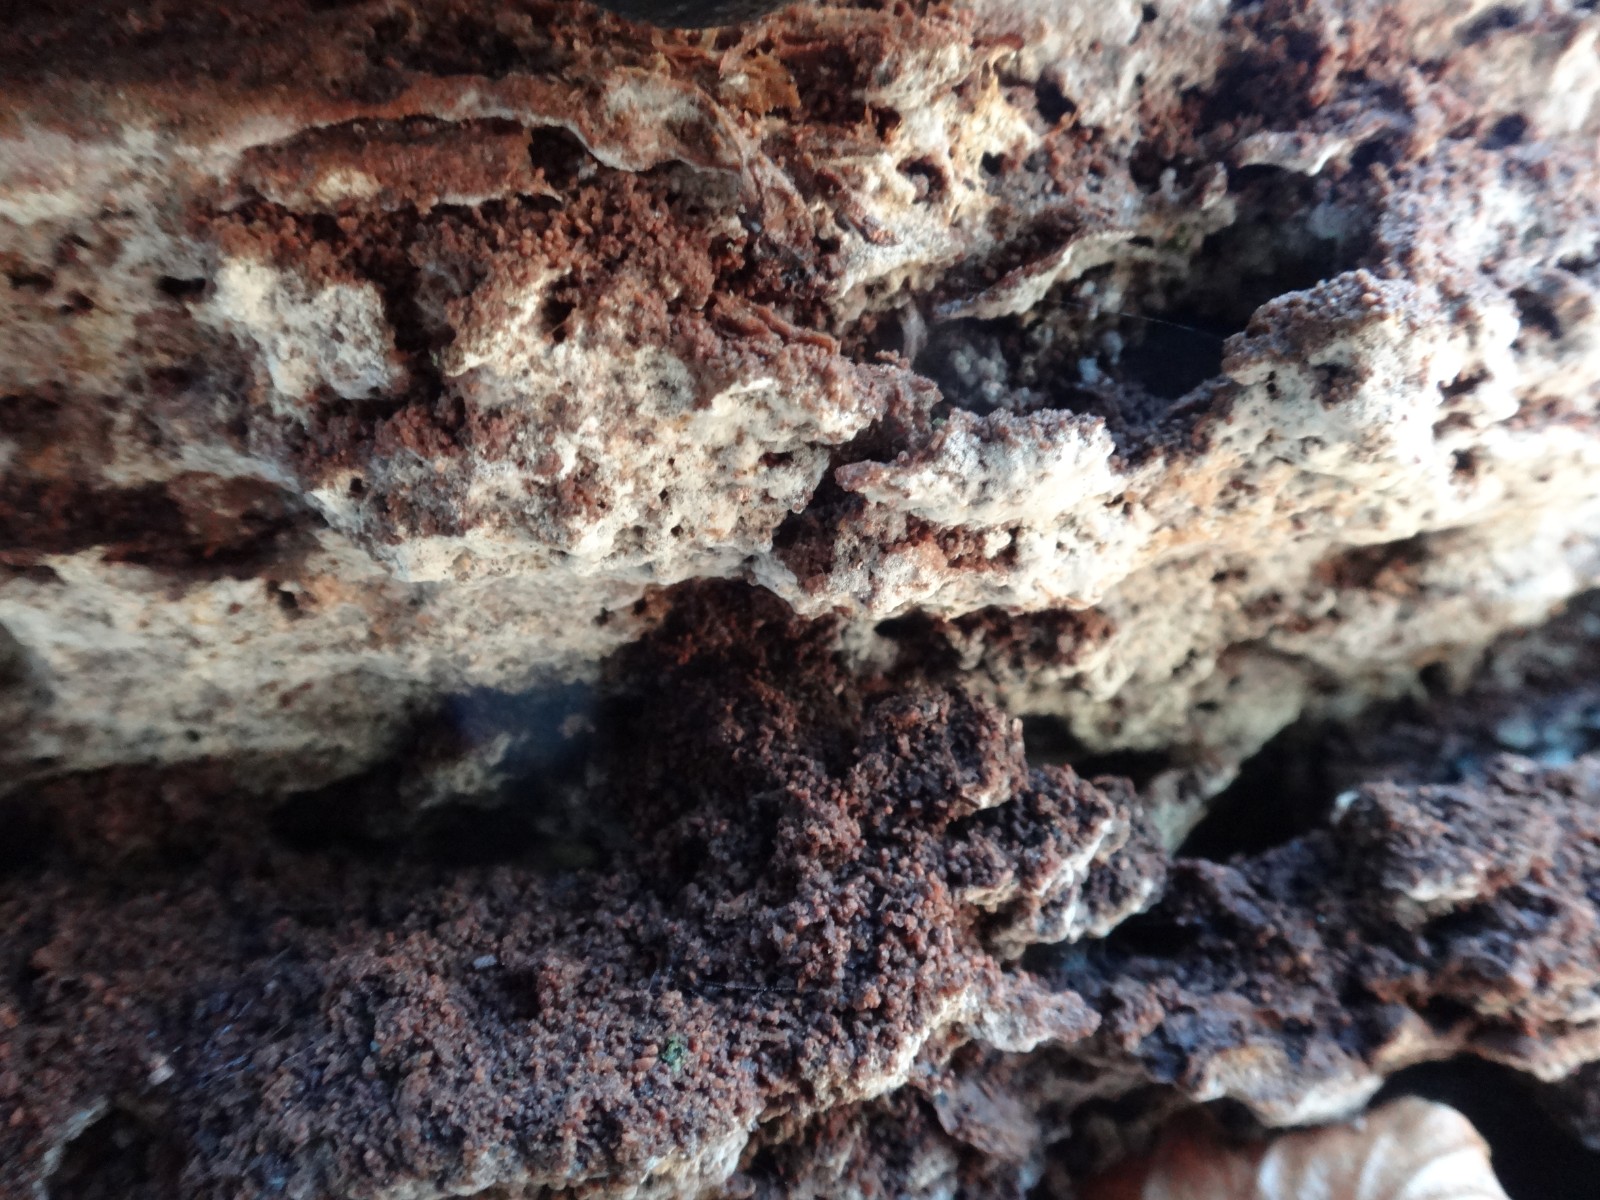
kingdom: Fungi
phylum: Basidiomycota
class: Agaricomycetes
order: Cantharellales
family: Botryobasidiaceae
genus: Botryobasidium
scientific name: Botryobasidium vagum
